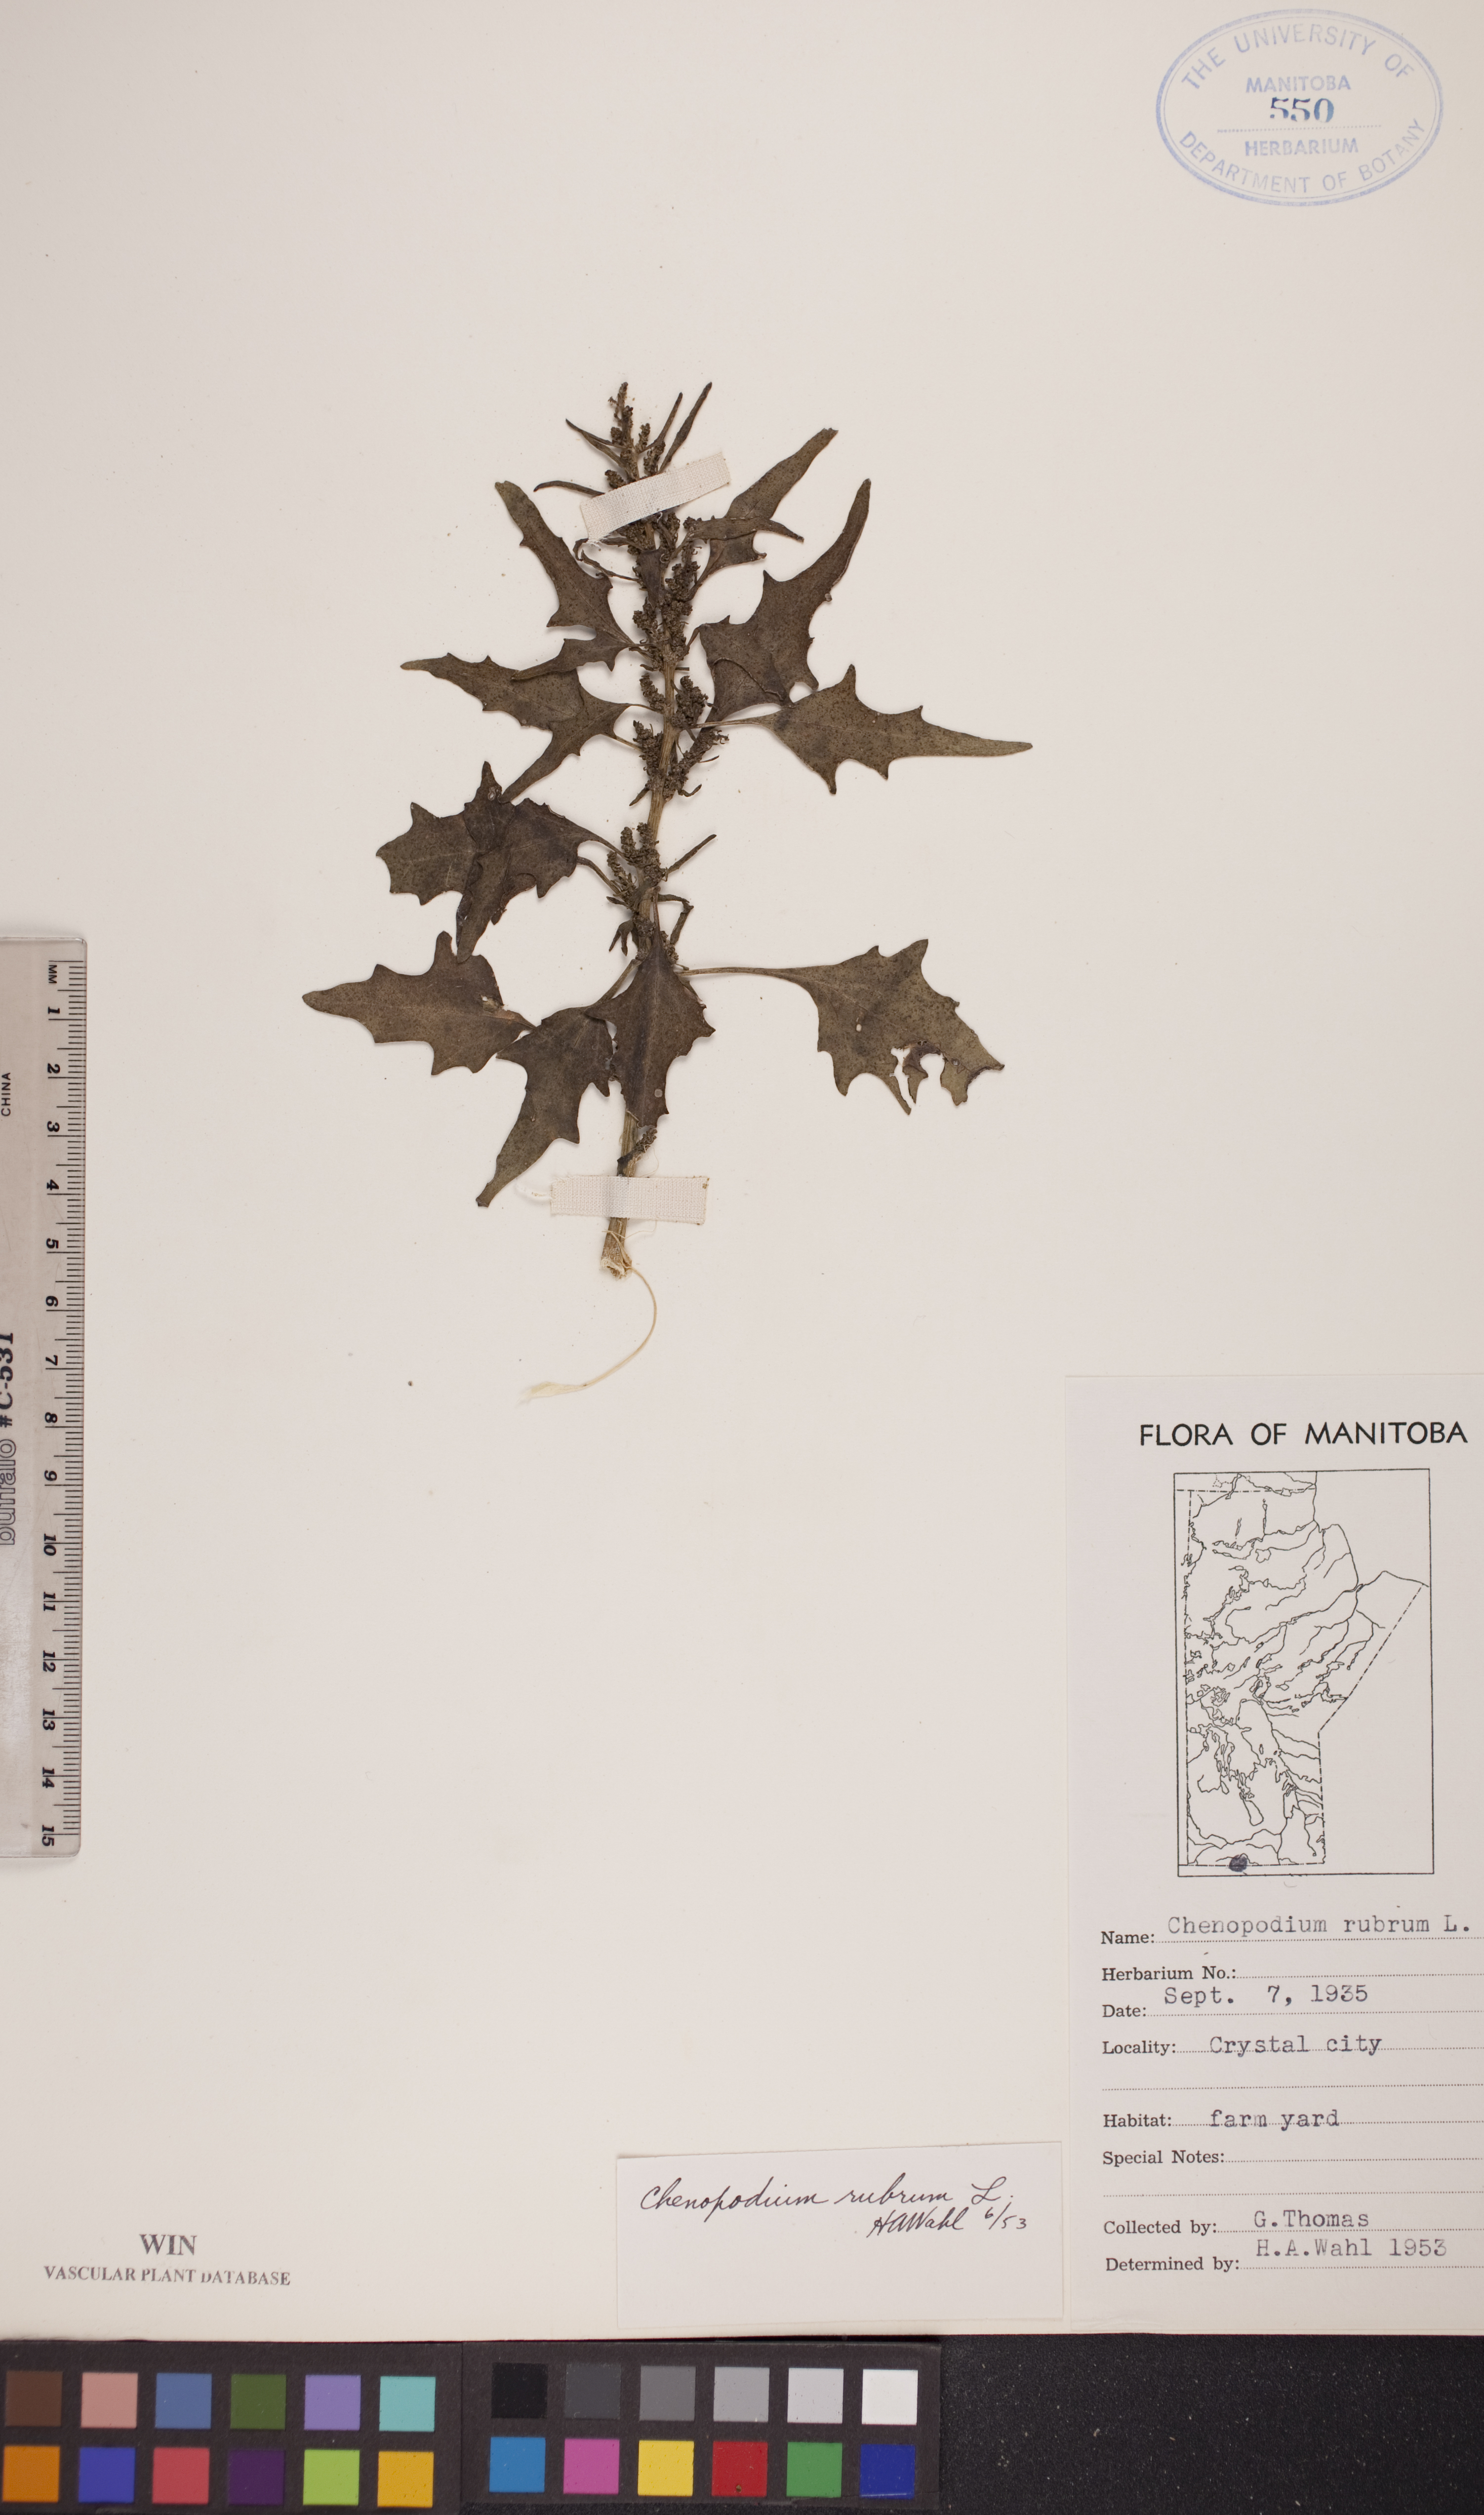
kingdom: Plantae
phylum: Tracheophyta
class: Magnoliopsida
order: Caryophyllales
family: Amaranthaceae
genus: Oxybasis
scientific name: Oxybasis rubra
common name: Red goosefoot
